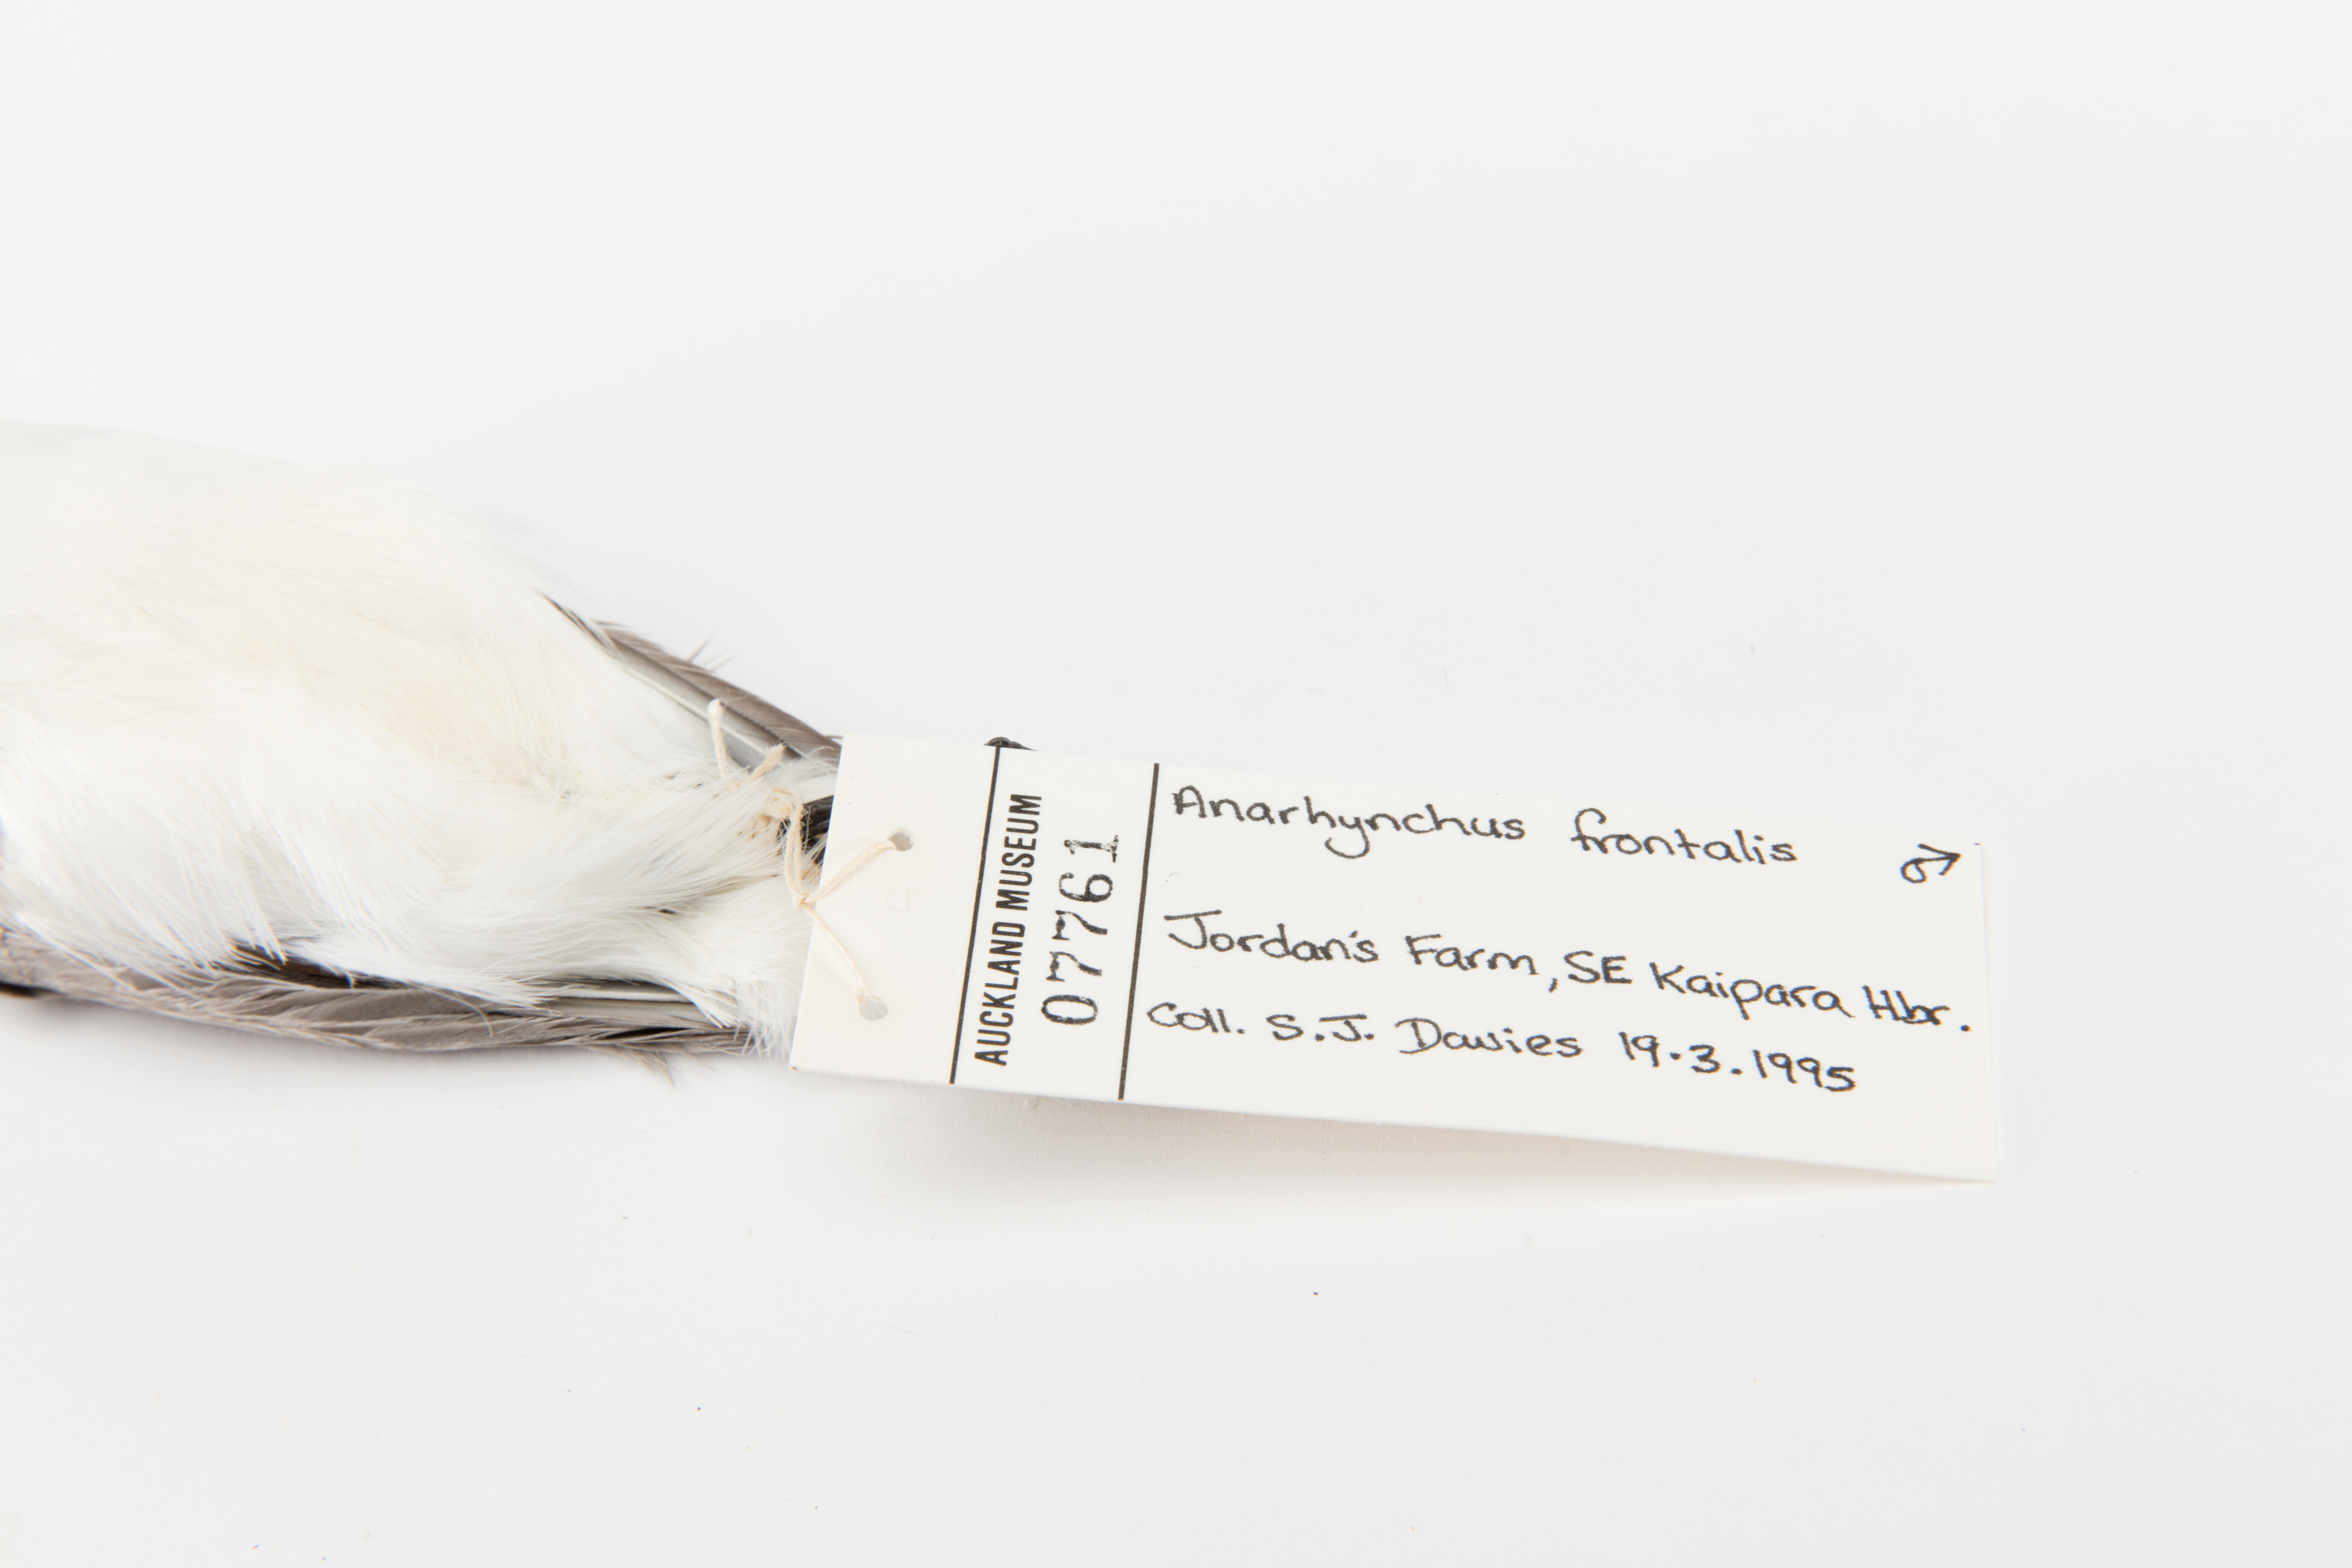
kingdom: Animalia
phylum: Chordata
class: Aves
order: Charadriiformes
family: Charadriidae
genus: Charadrius
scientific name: Charadrius frontalis
